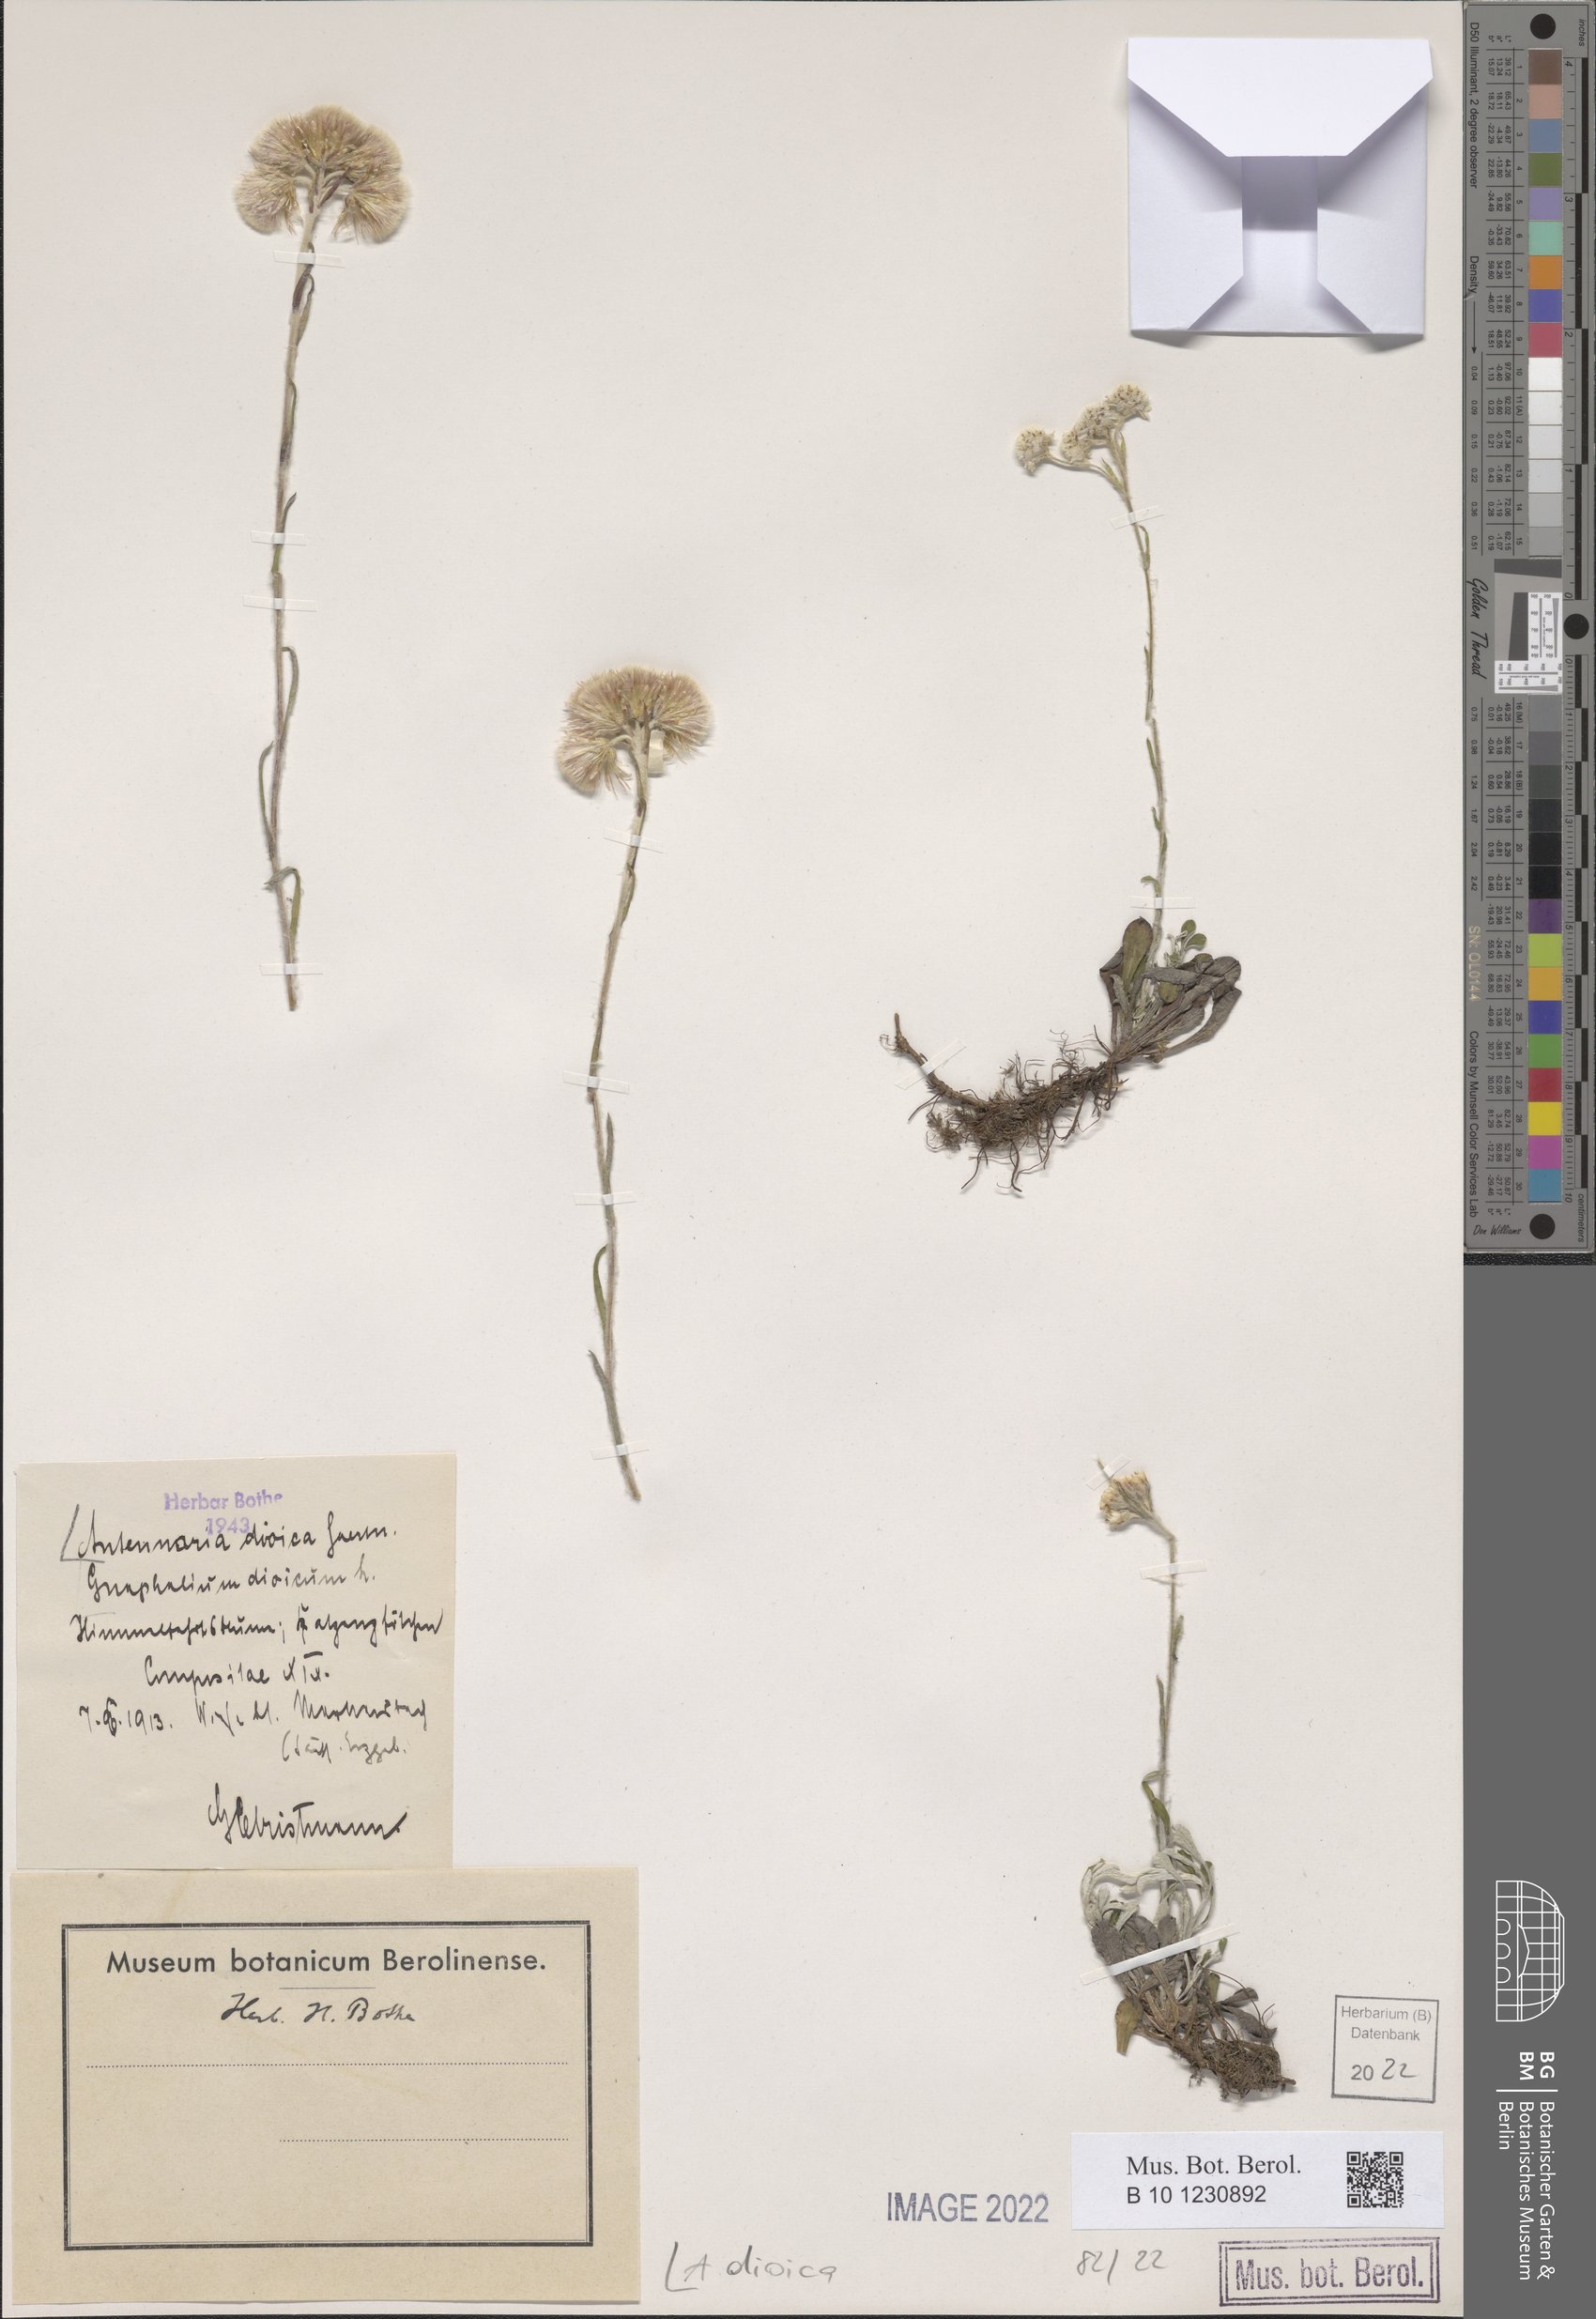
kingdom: Plantae
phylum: Tracheophyta
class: Magnoliopsida
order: Asterales
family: Asteraceae
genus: Antennaria
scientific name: Antennaria dioica
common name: Mountain everlasting
